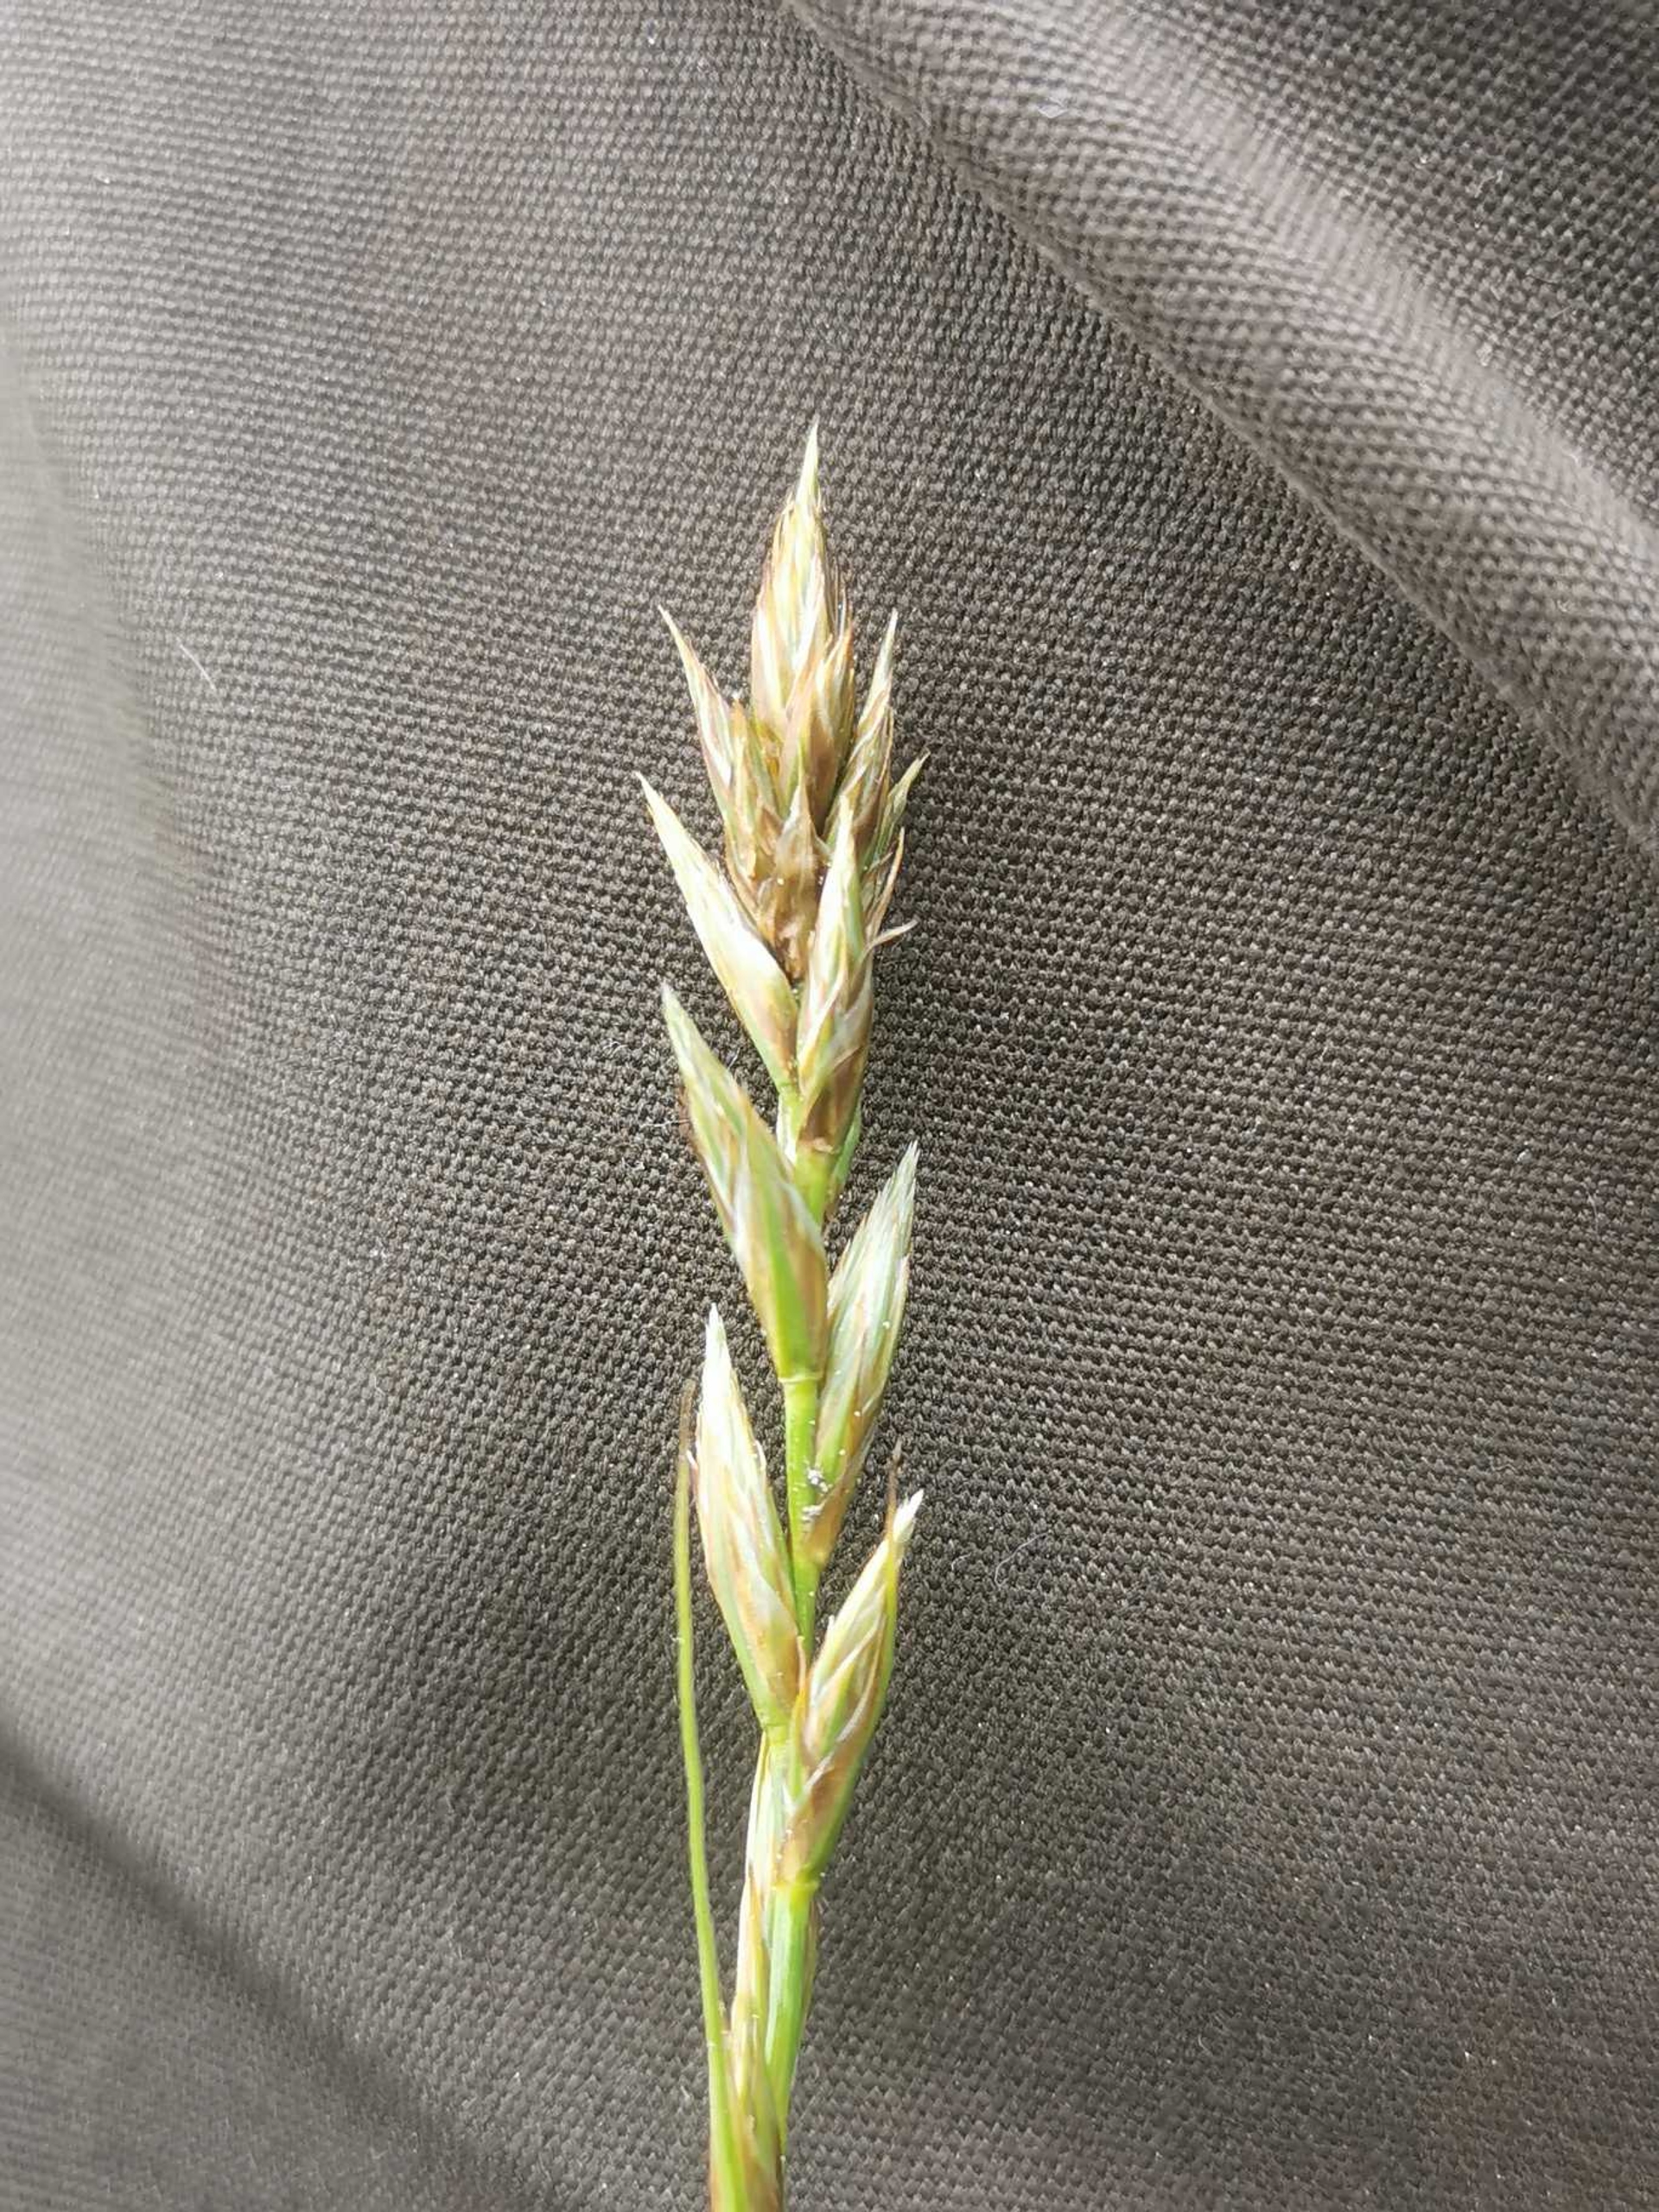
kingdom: Plantae
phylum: Tracheophyta
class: Liliopsida
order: Poales
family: Cyperaceae
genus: Carex
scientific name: Carex arenaria
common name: Sand-star
